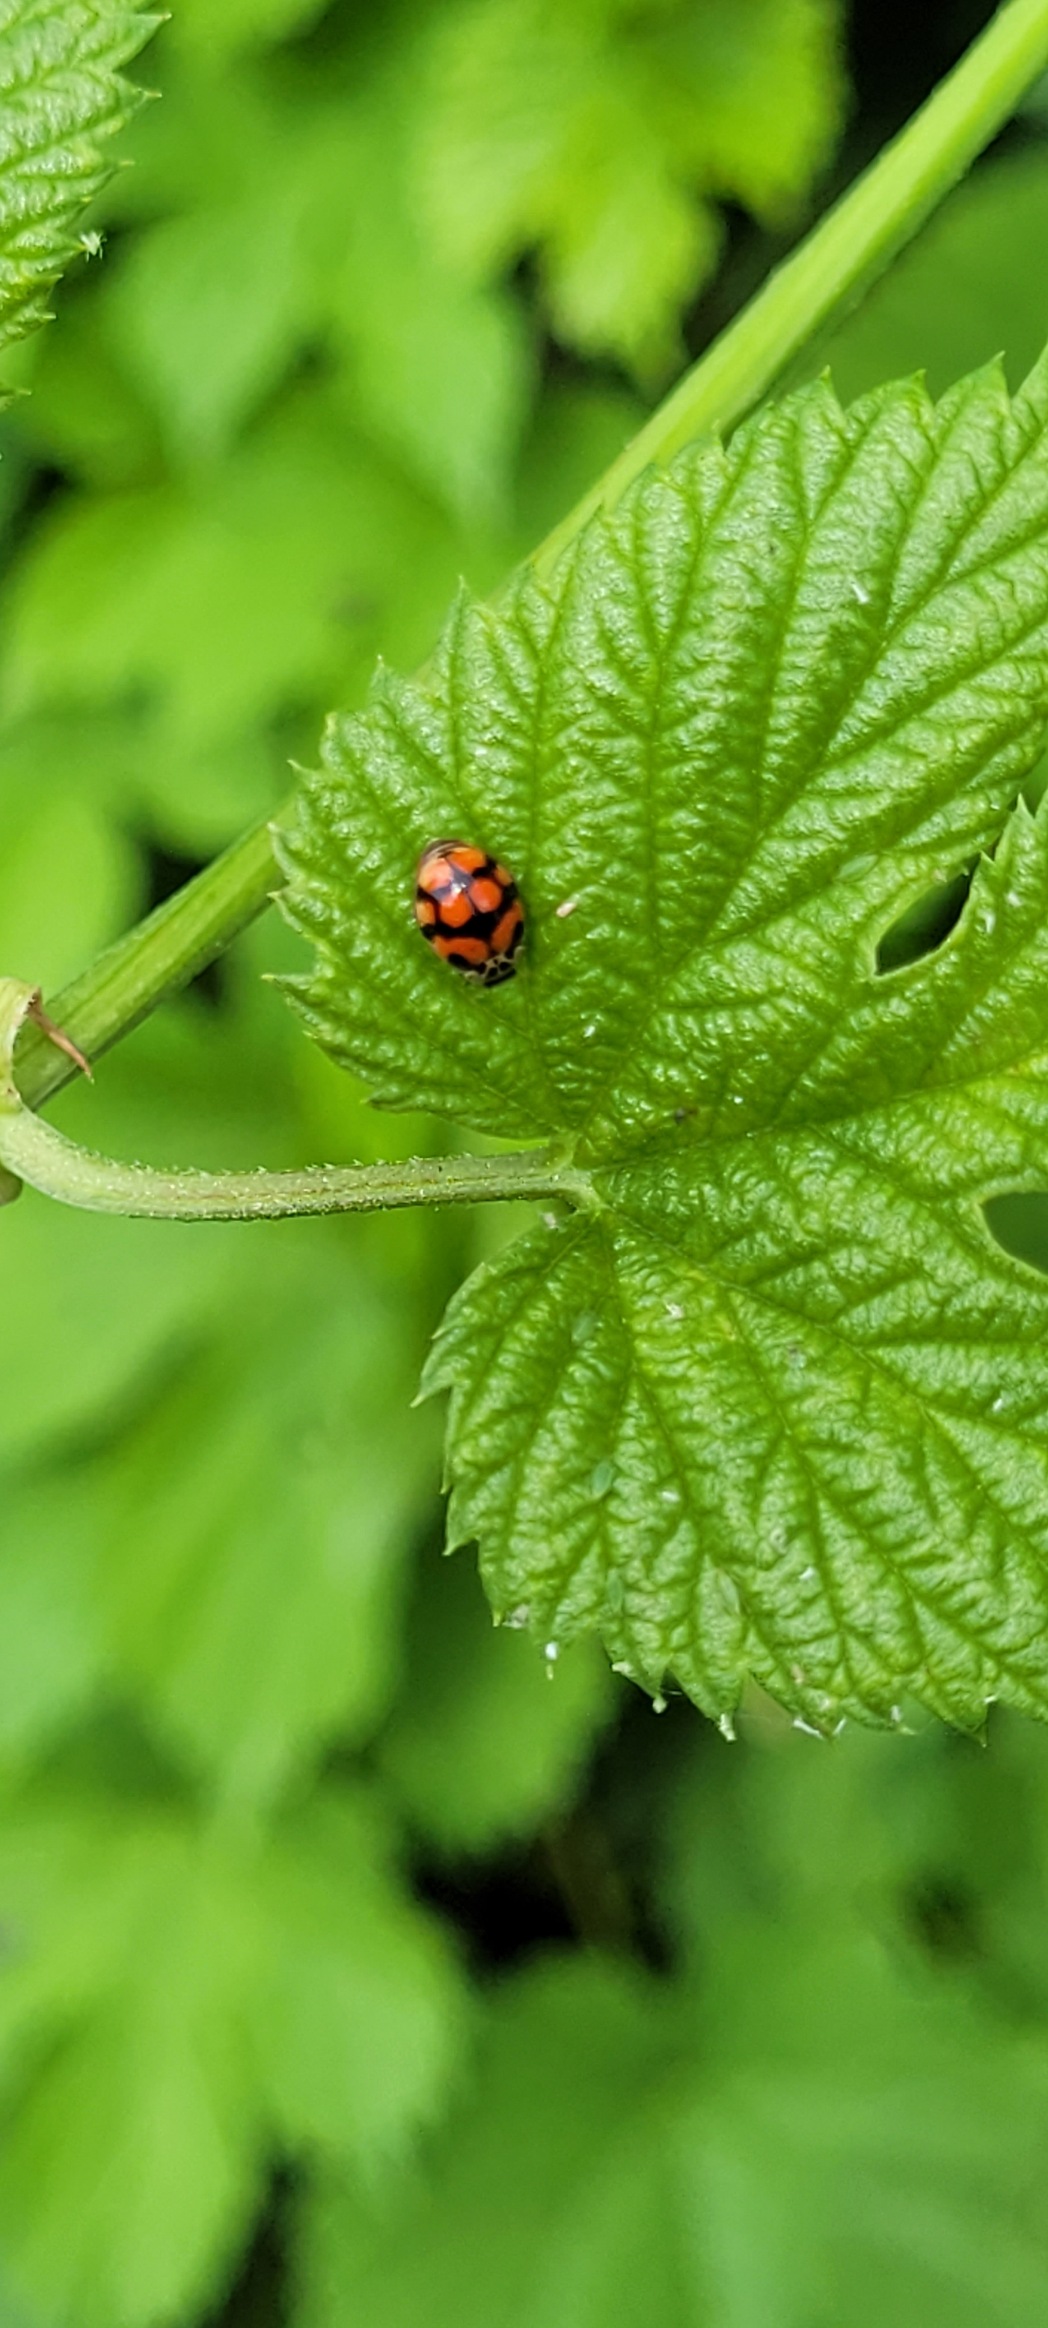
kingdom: Animalia
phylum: Arthropoda
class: Insecta
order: Coleoptera
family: Coccinellidae
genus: Adalia
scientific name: Adalia decempunctata
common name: Tiplettet mariehøne
